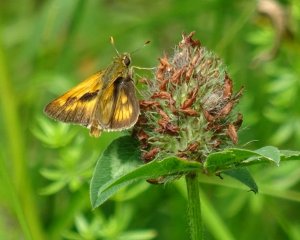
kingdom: Animalia
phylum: Arthropoda
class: Insecta
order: Lepidoptera
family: Hesperiidae
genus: Polites
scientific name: Polites
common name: Long Dash Skipper
